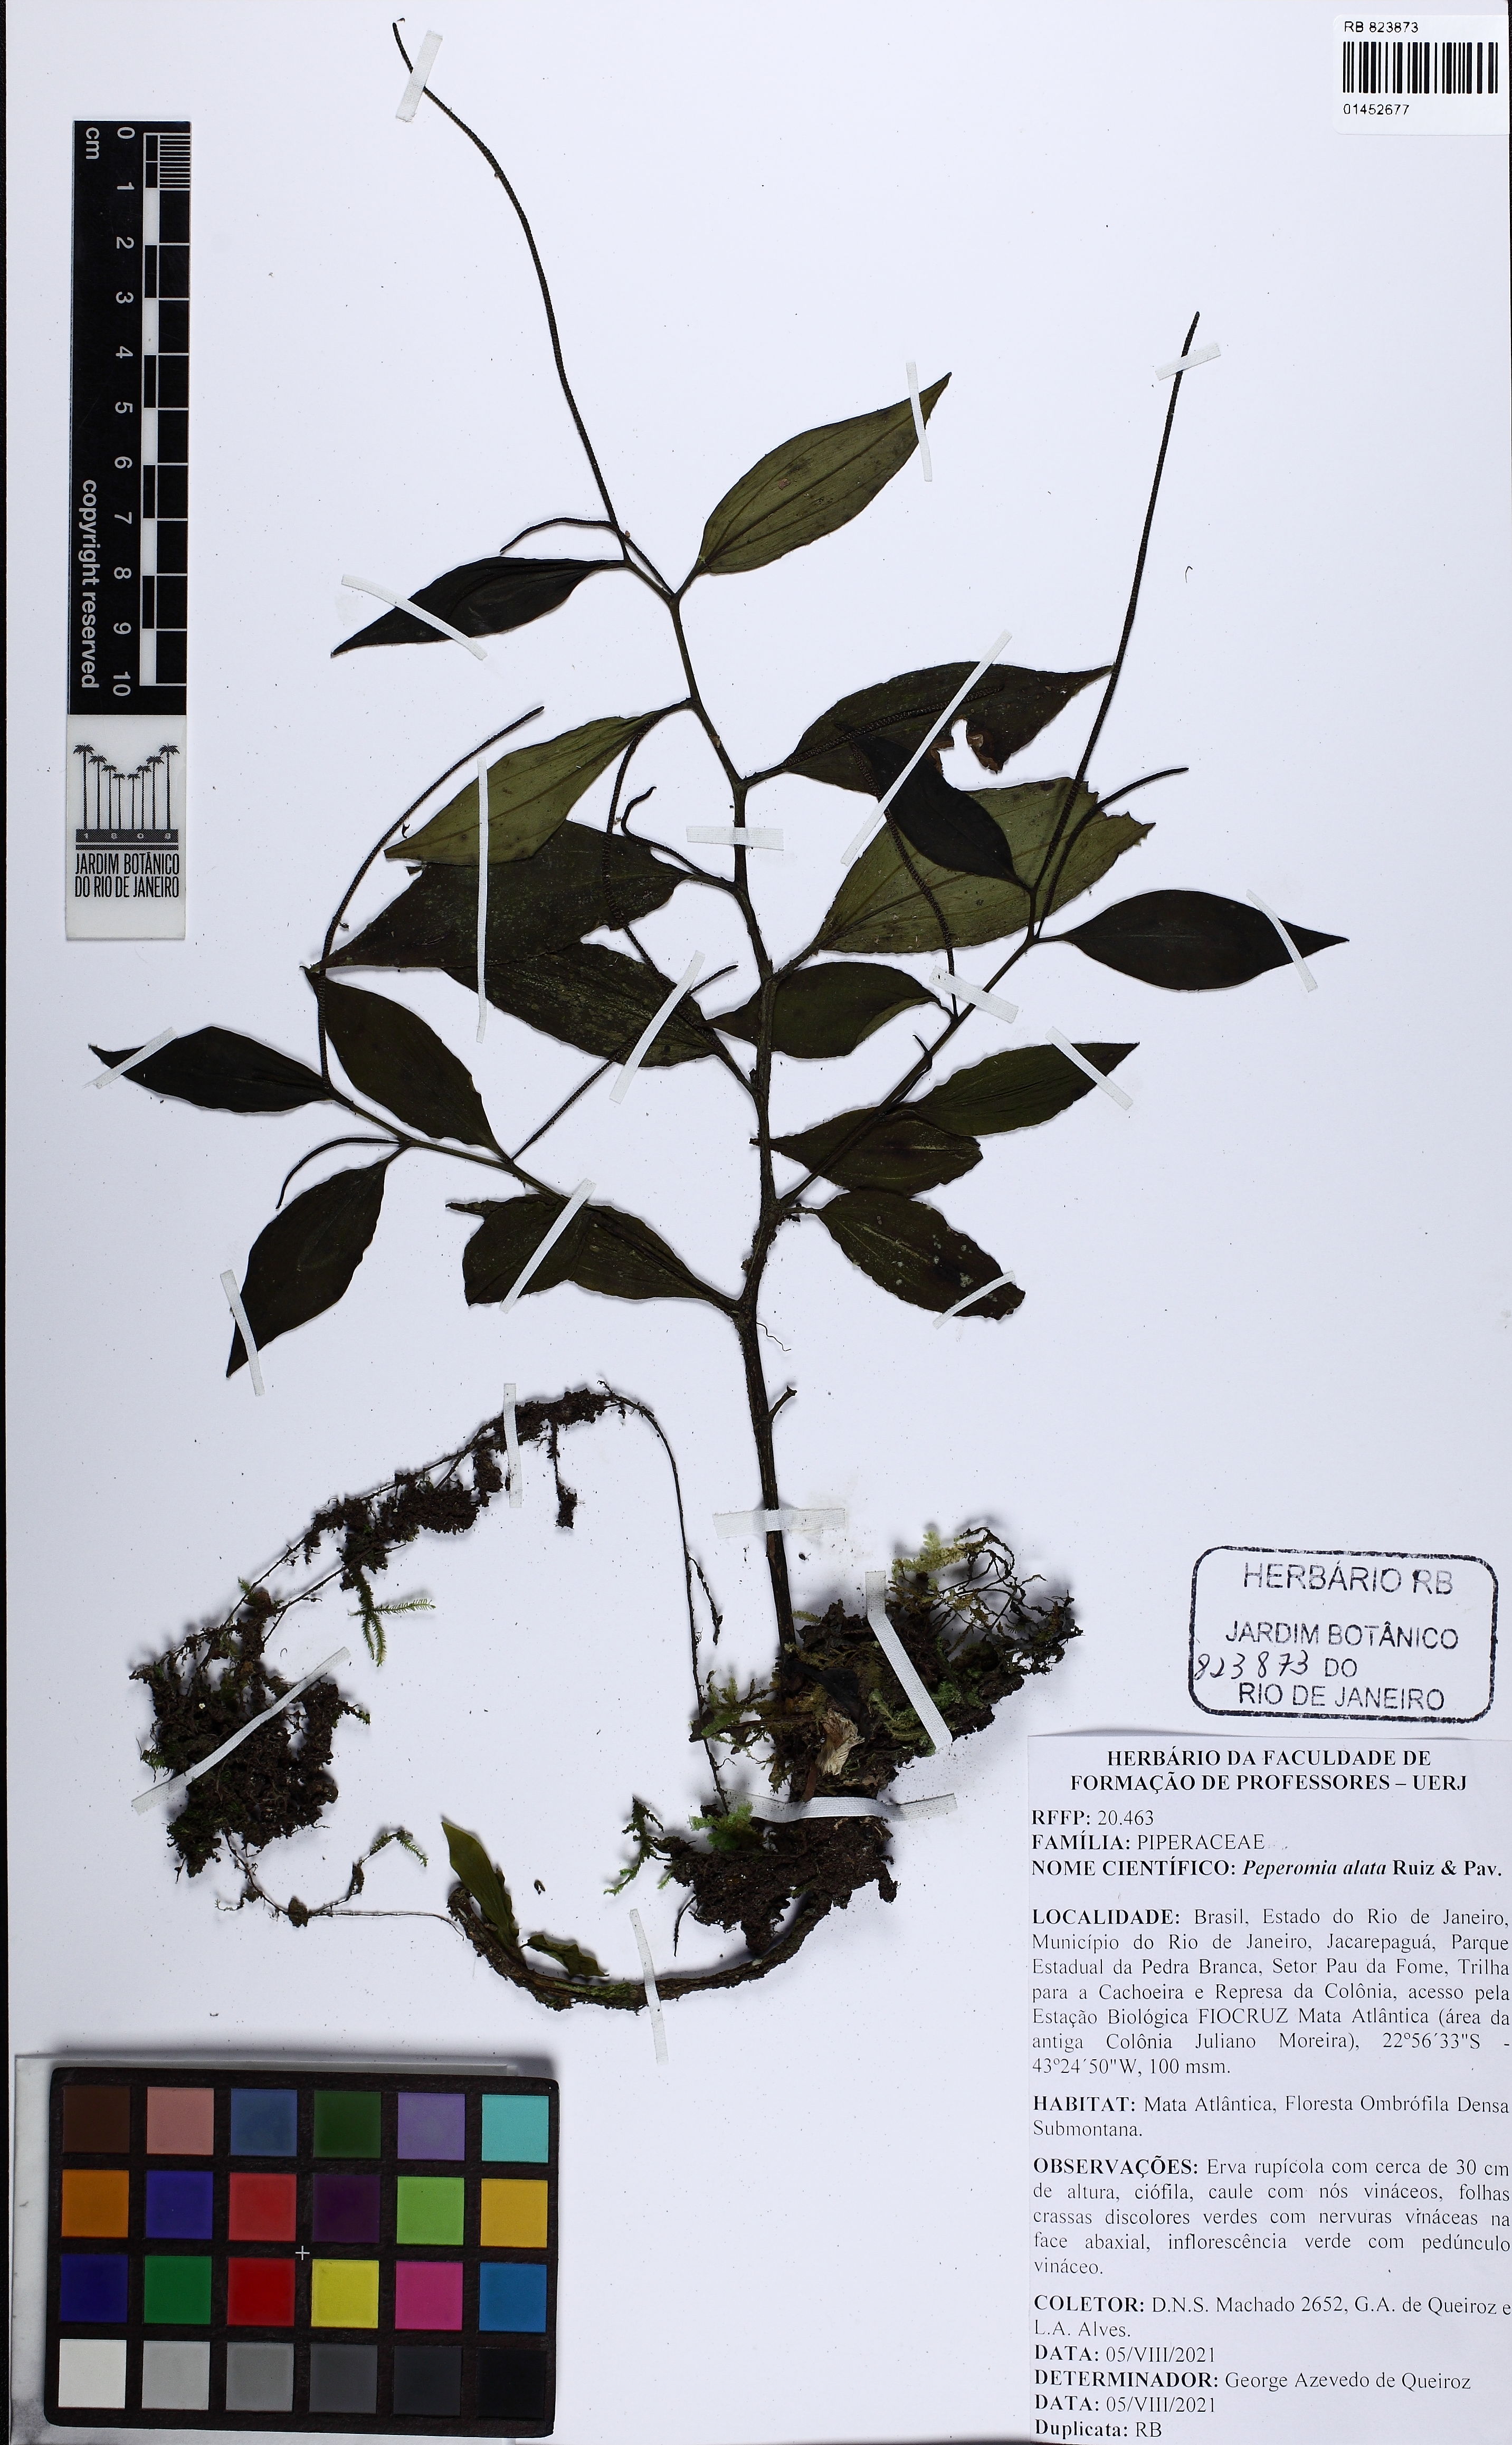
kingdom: Plantae
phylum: Tracheophyta
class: Magnoliopsida
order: Piperales
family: Piperaceae
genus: Peperomia
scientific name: Peperomia alata
